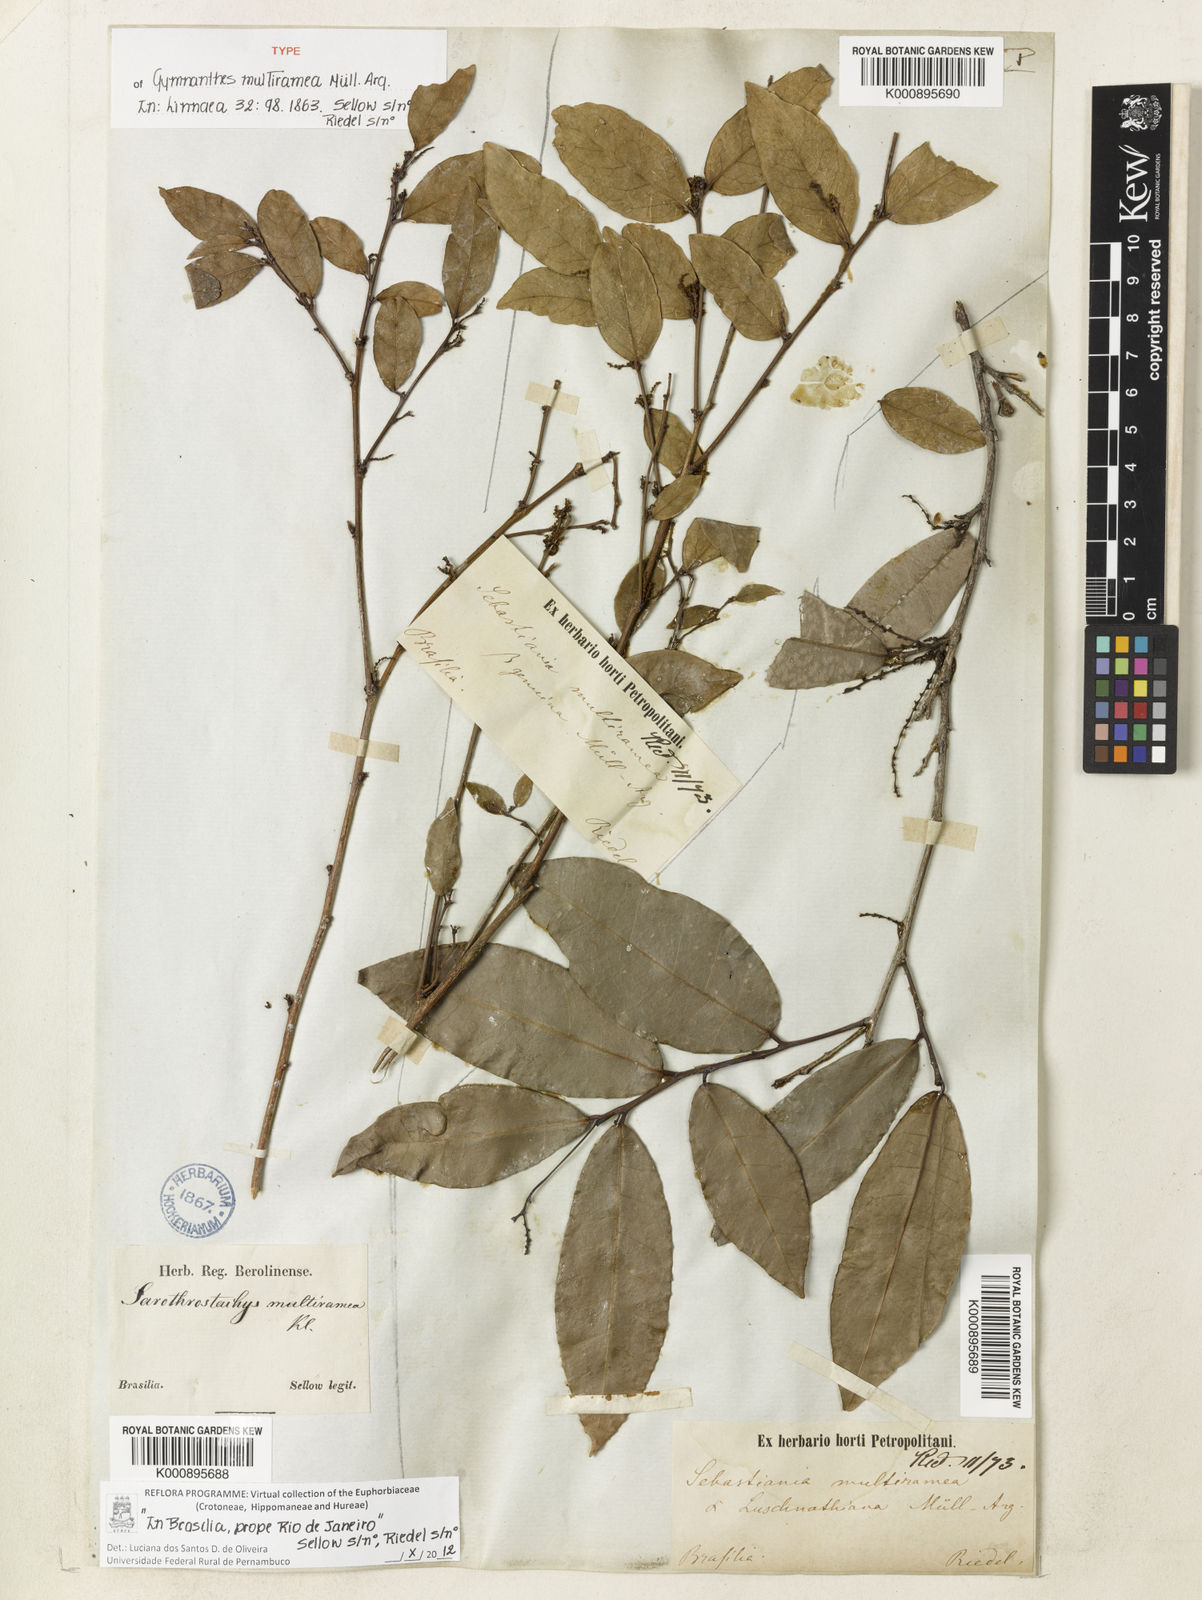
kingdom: Plantae
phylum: Tracheophyta
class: Magnoliopsida
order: Malpighiales
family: Euphorbiaceae
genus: Gymnanthes
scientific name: Gymnanthes glabrata
